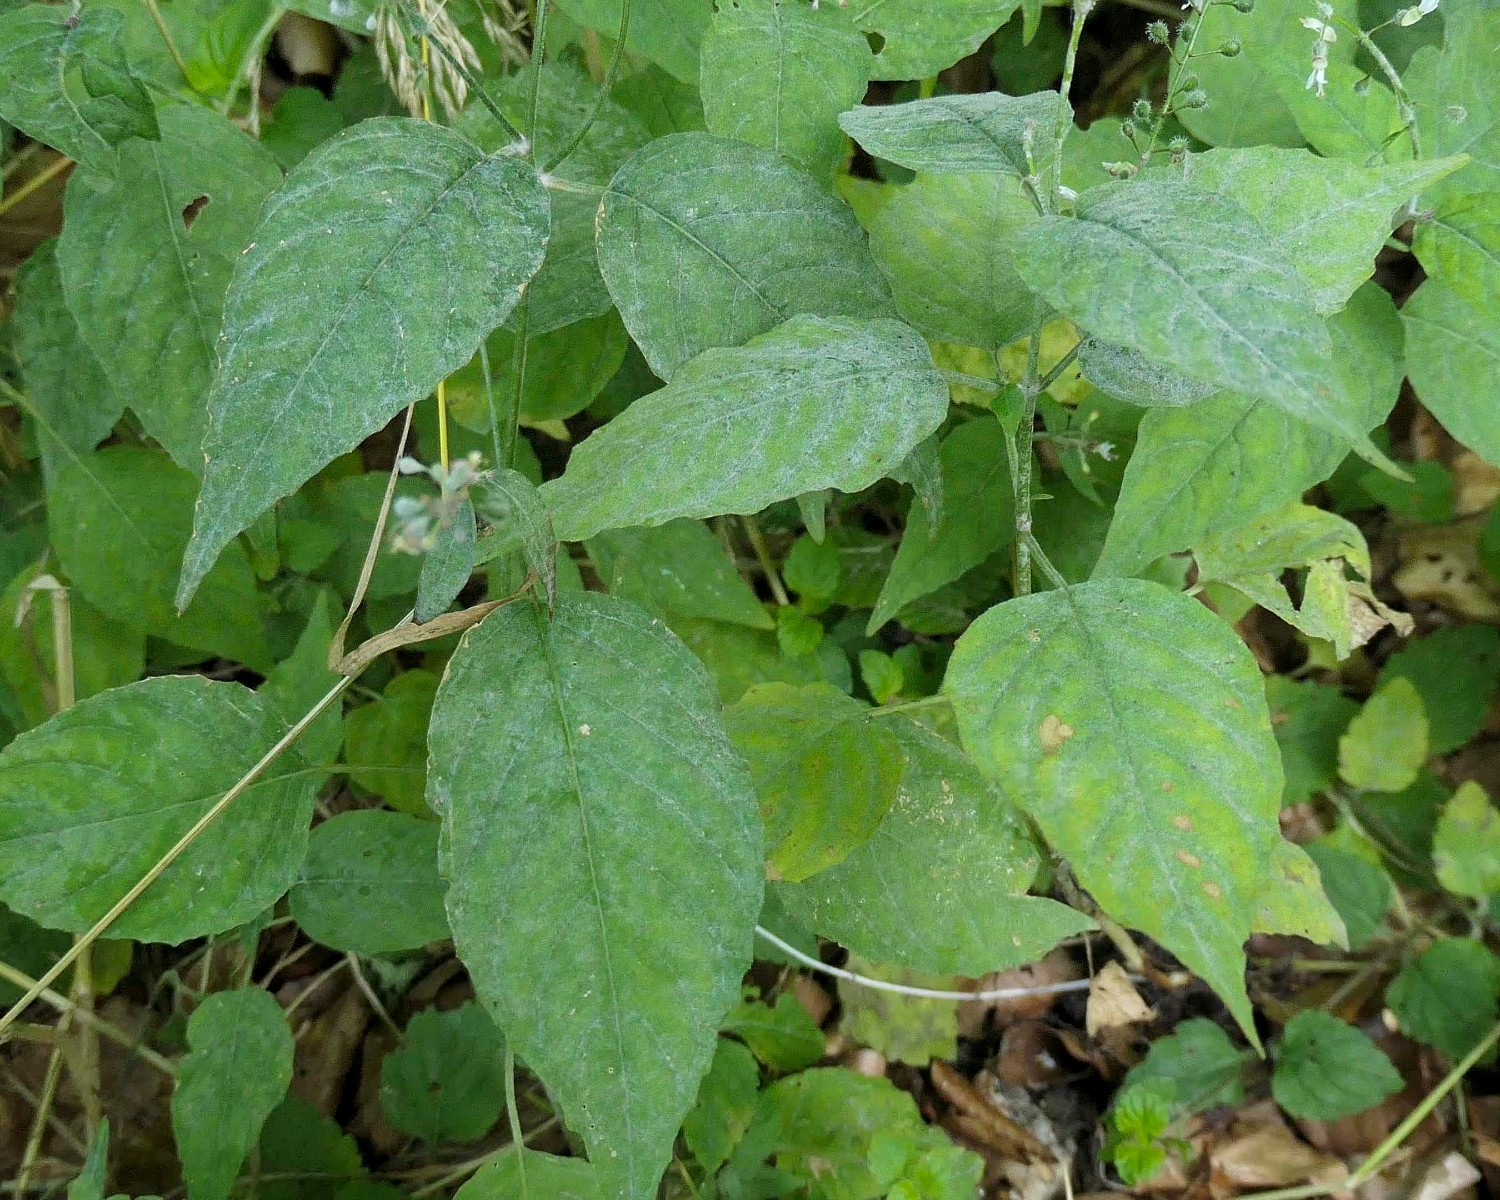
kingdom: Fungi
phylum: Ascomycota
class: Leotiomycetes
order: Helotiales
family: Erysiphaceae
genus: Erysiphe
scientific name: Erysiphe circaeae
